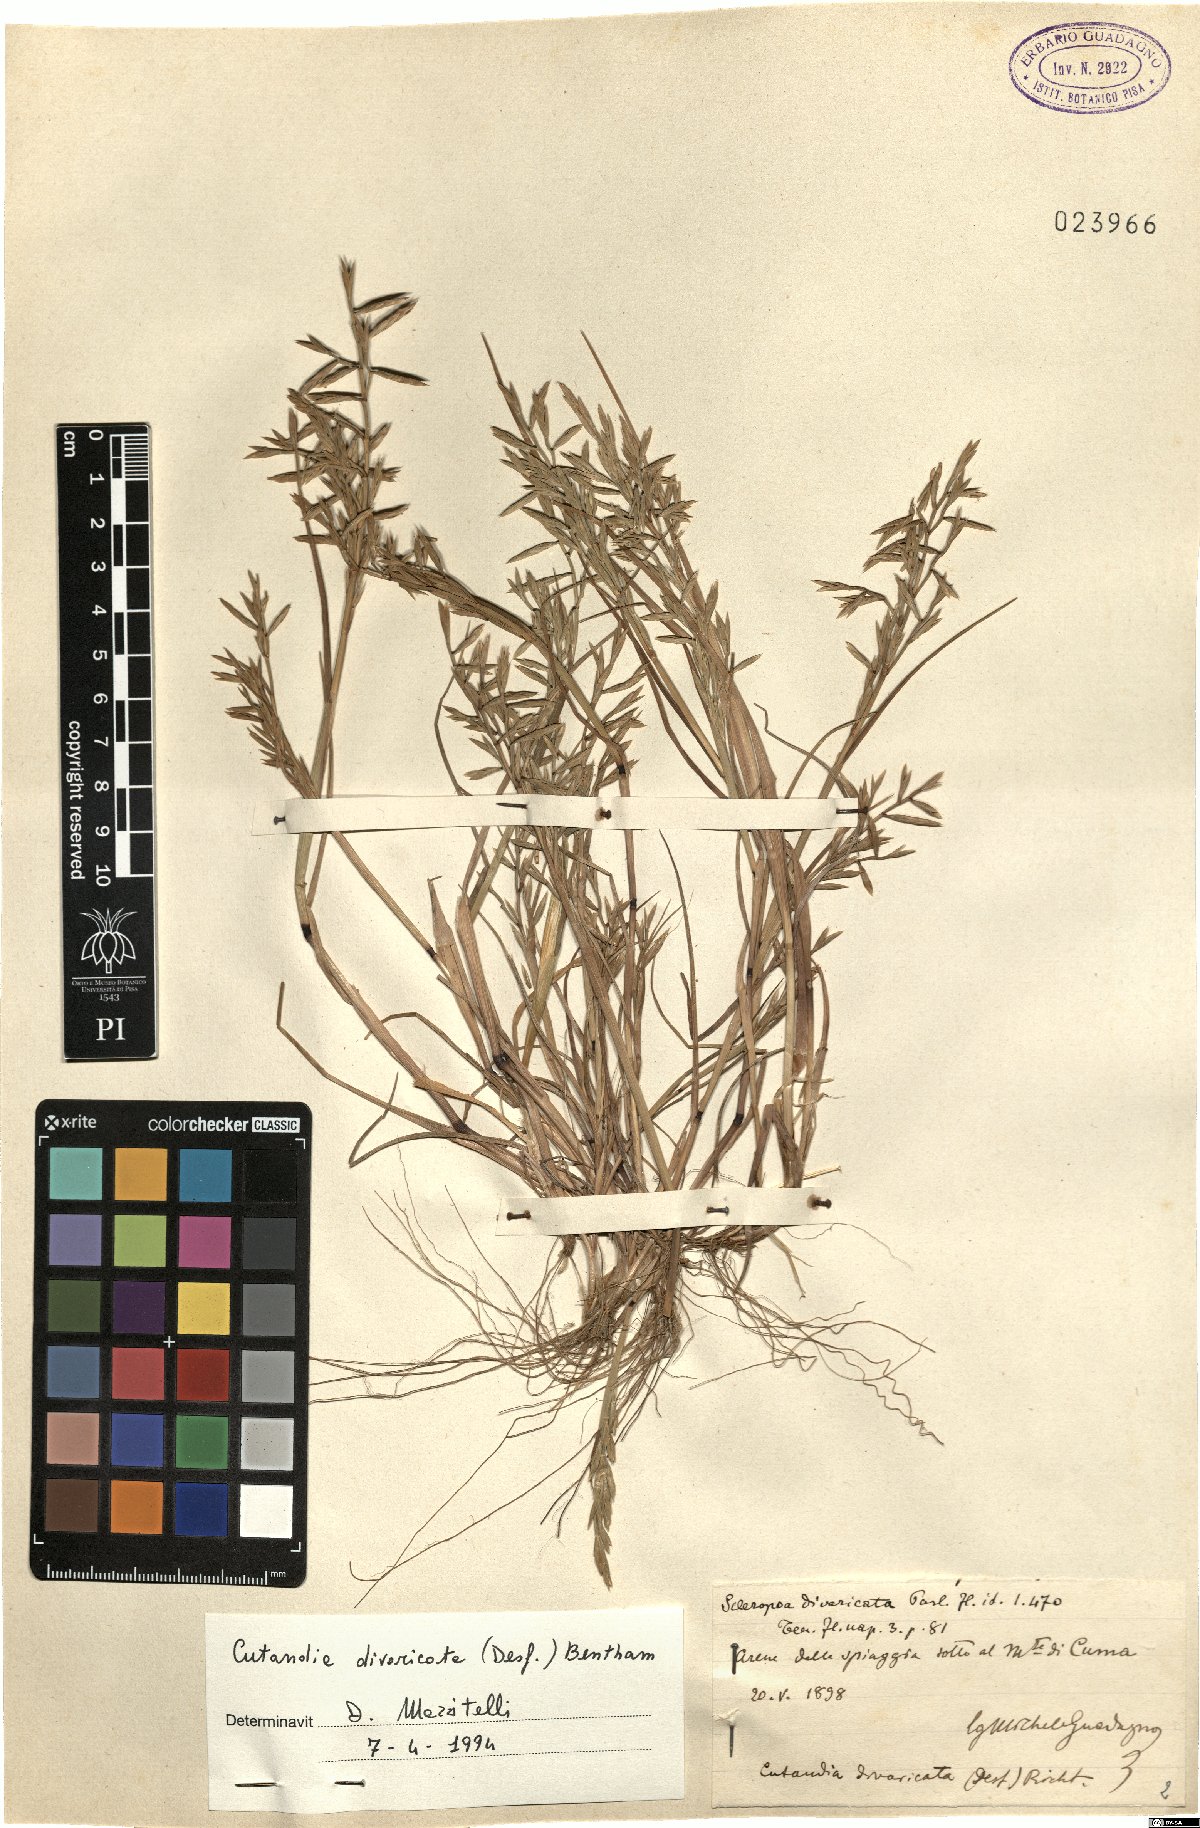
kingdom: Plantae
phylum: Tracheophyta
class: Liliopsida
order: Poales
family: Poaceae
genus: Cutandia
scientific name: Cutandia divaricata
